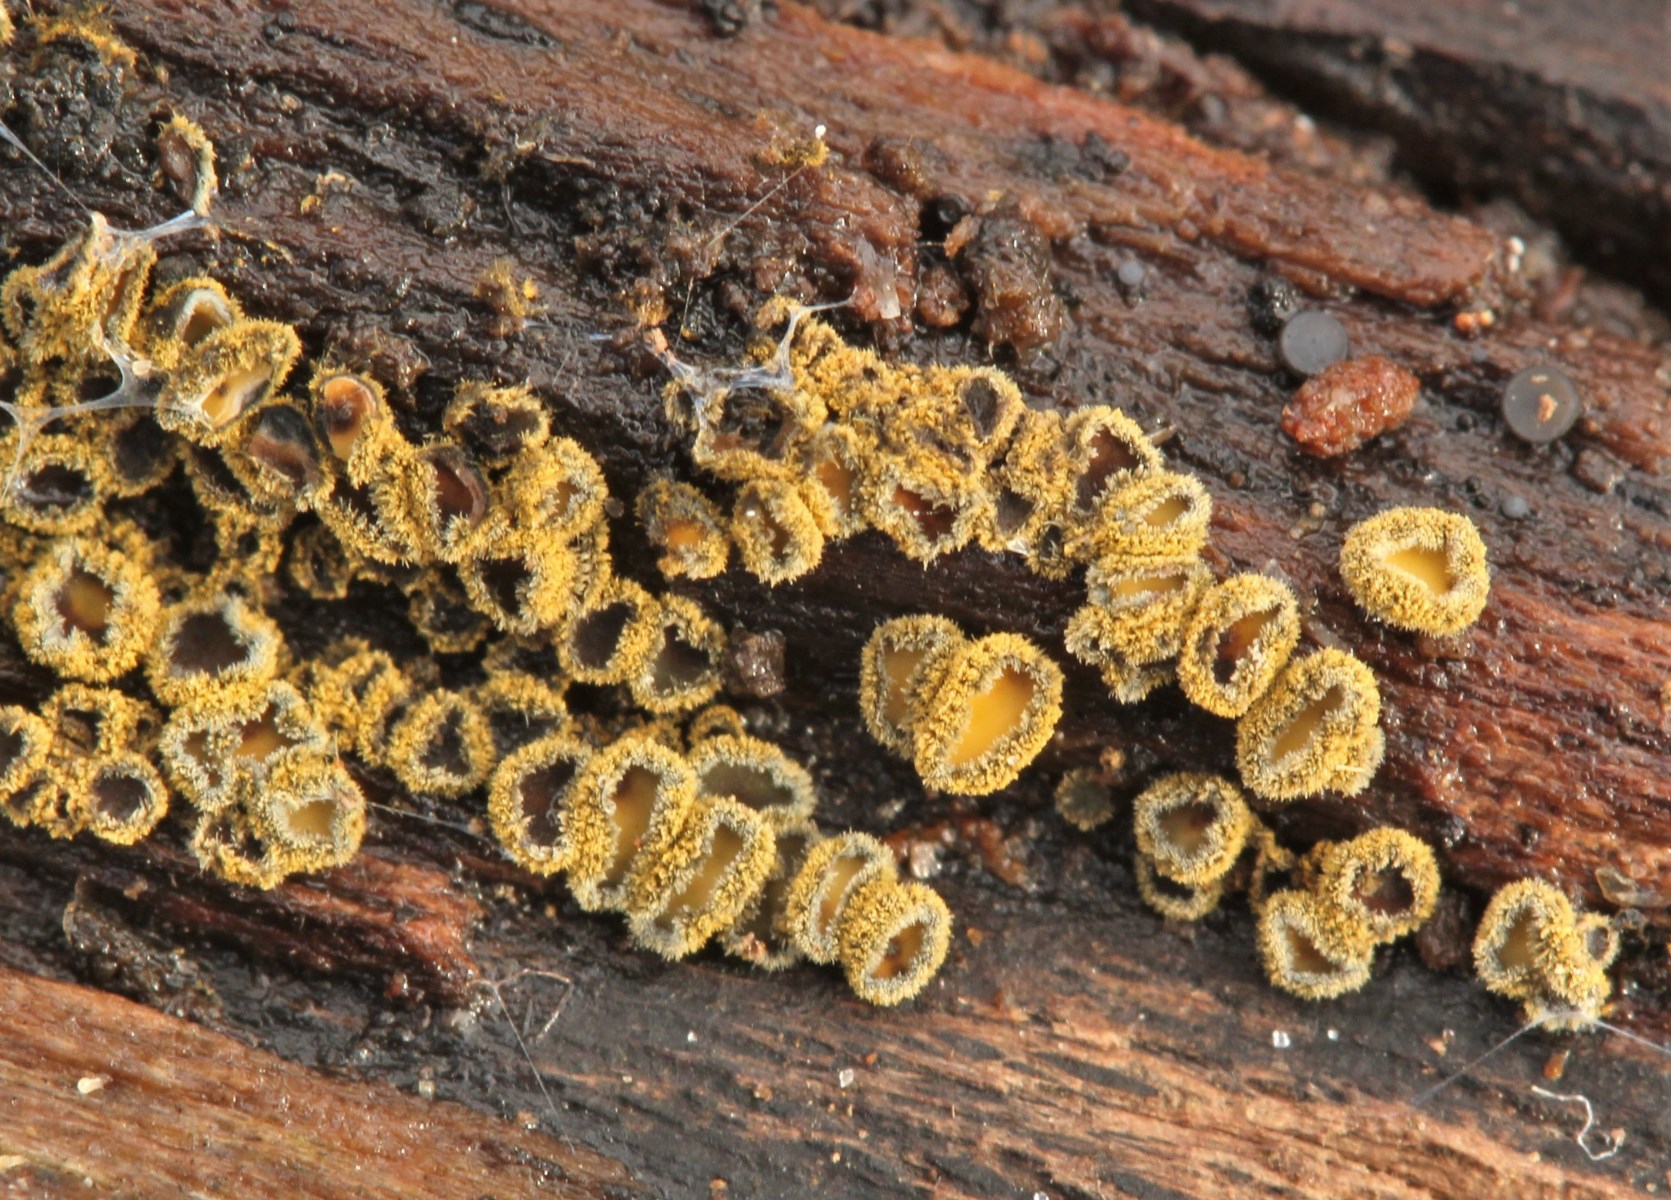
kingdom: Fungi
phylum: Ascomycota
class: Leotiomycetes
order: Helotiales
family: Lachnaceae
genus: Neodasyscypha
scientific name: Neodasyscypha cerina
